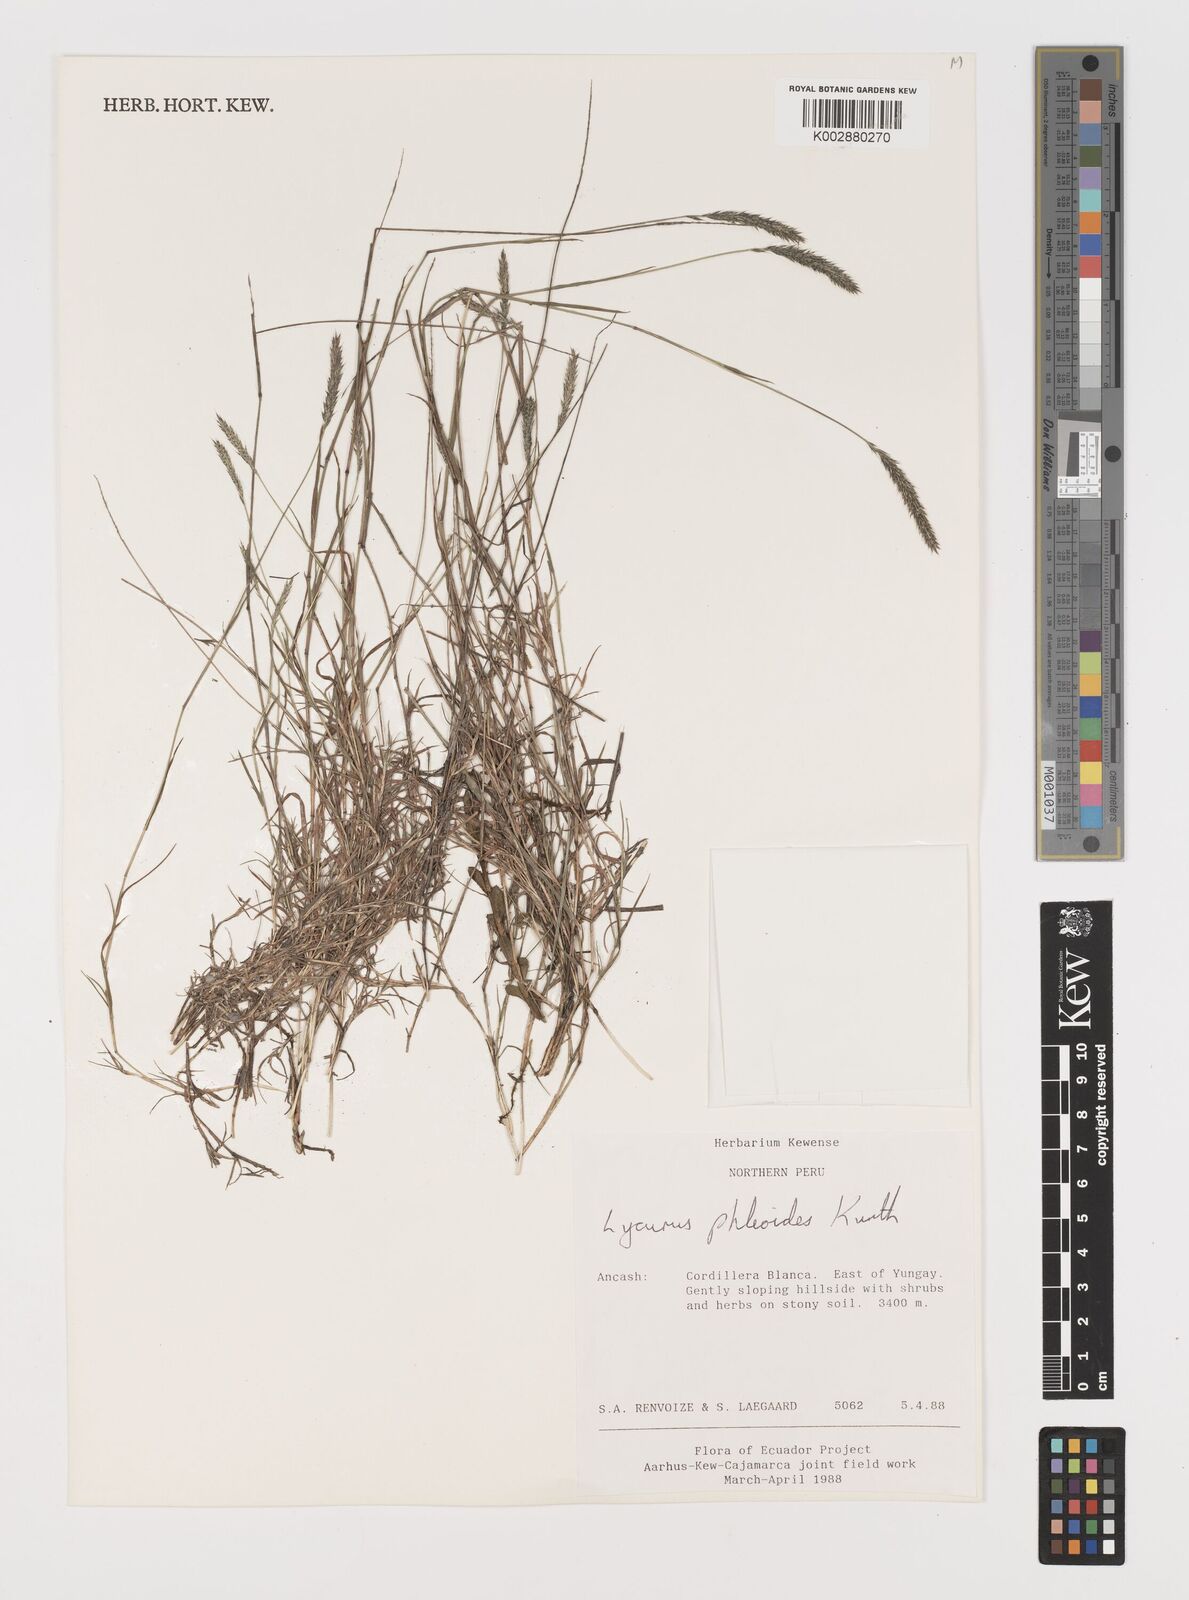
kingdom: Plantae
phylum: Tracheophyta
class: Liliopsida
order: Poales
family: Poaceae
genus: Muhlenbergia
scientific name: Muhlenbergia phalaroides
